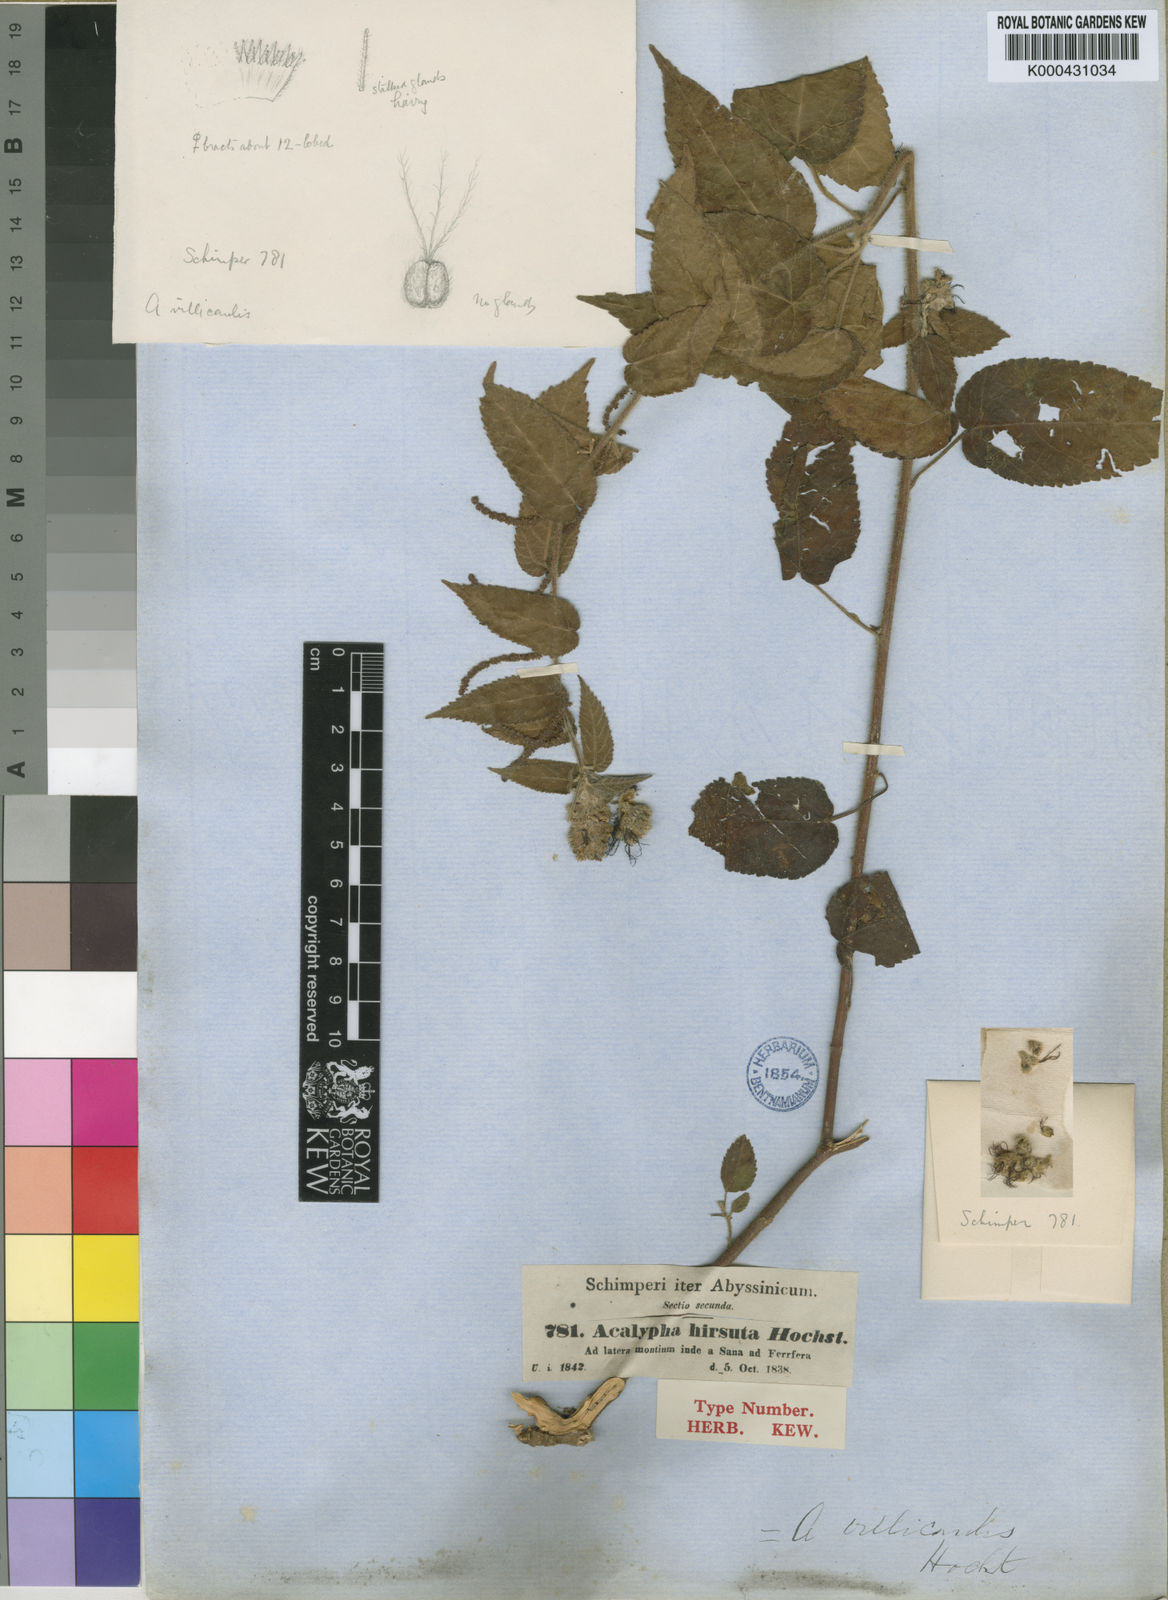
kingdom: Plantae
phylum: Tracheophyta
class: Magnoliopsida
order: Malpighiales
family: Euphorbiaceae
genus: Acalypha
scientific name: Acalypha petiolaris
